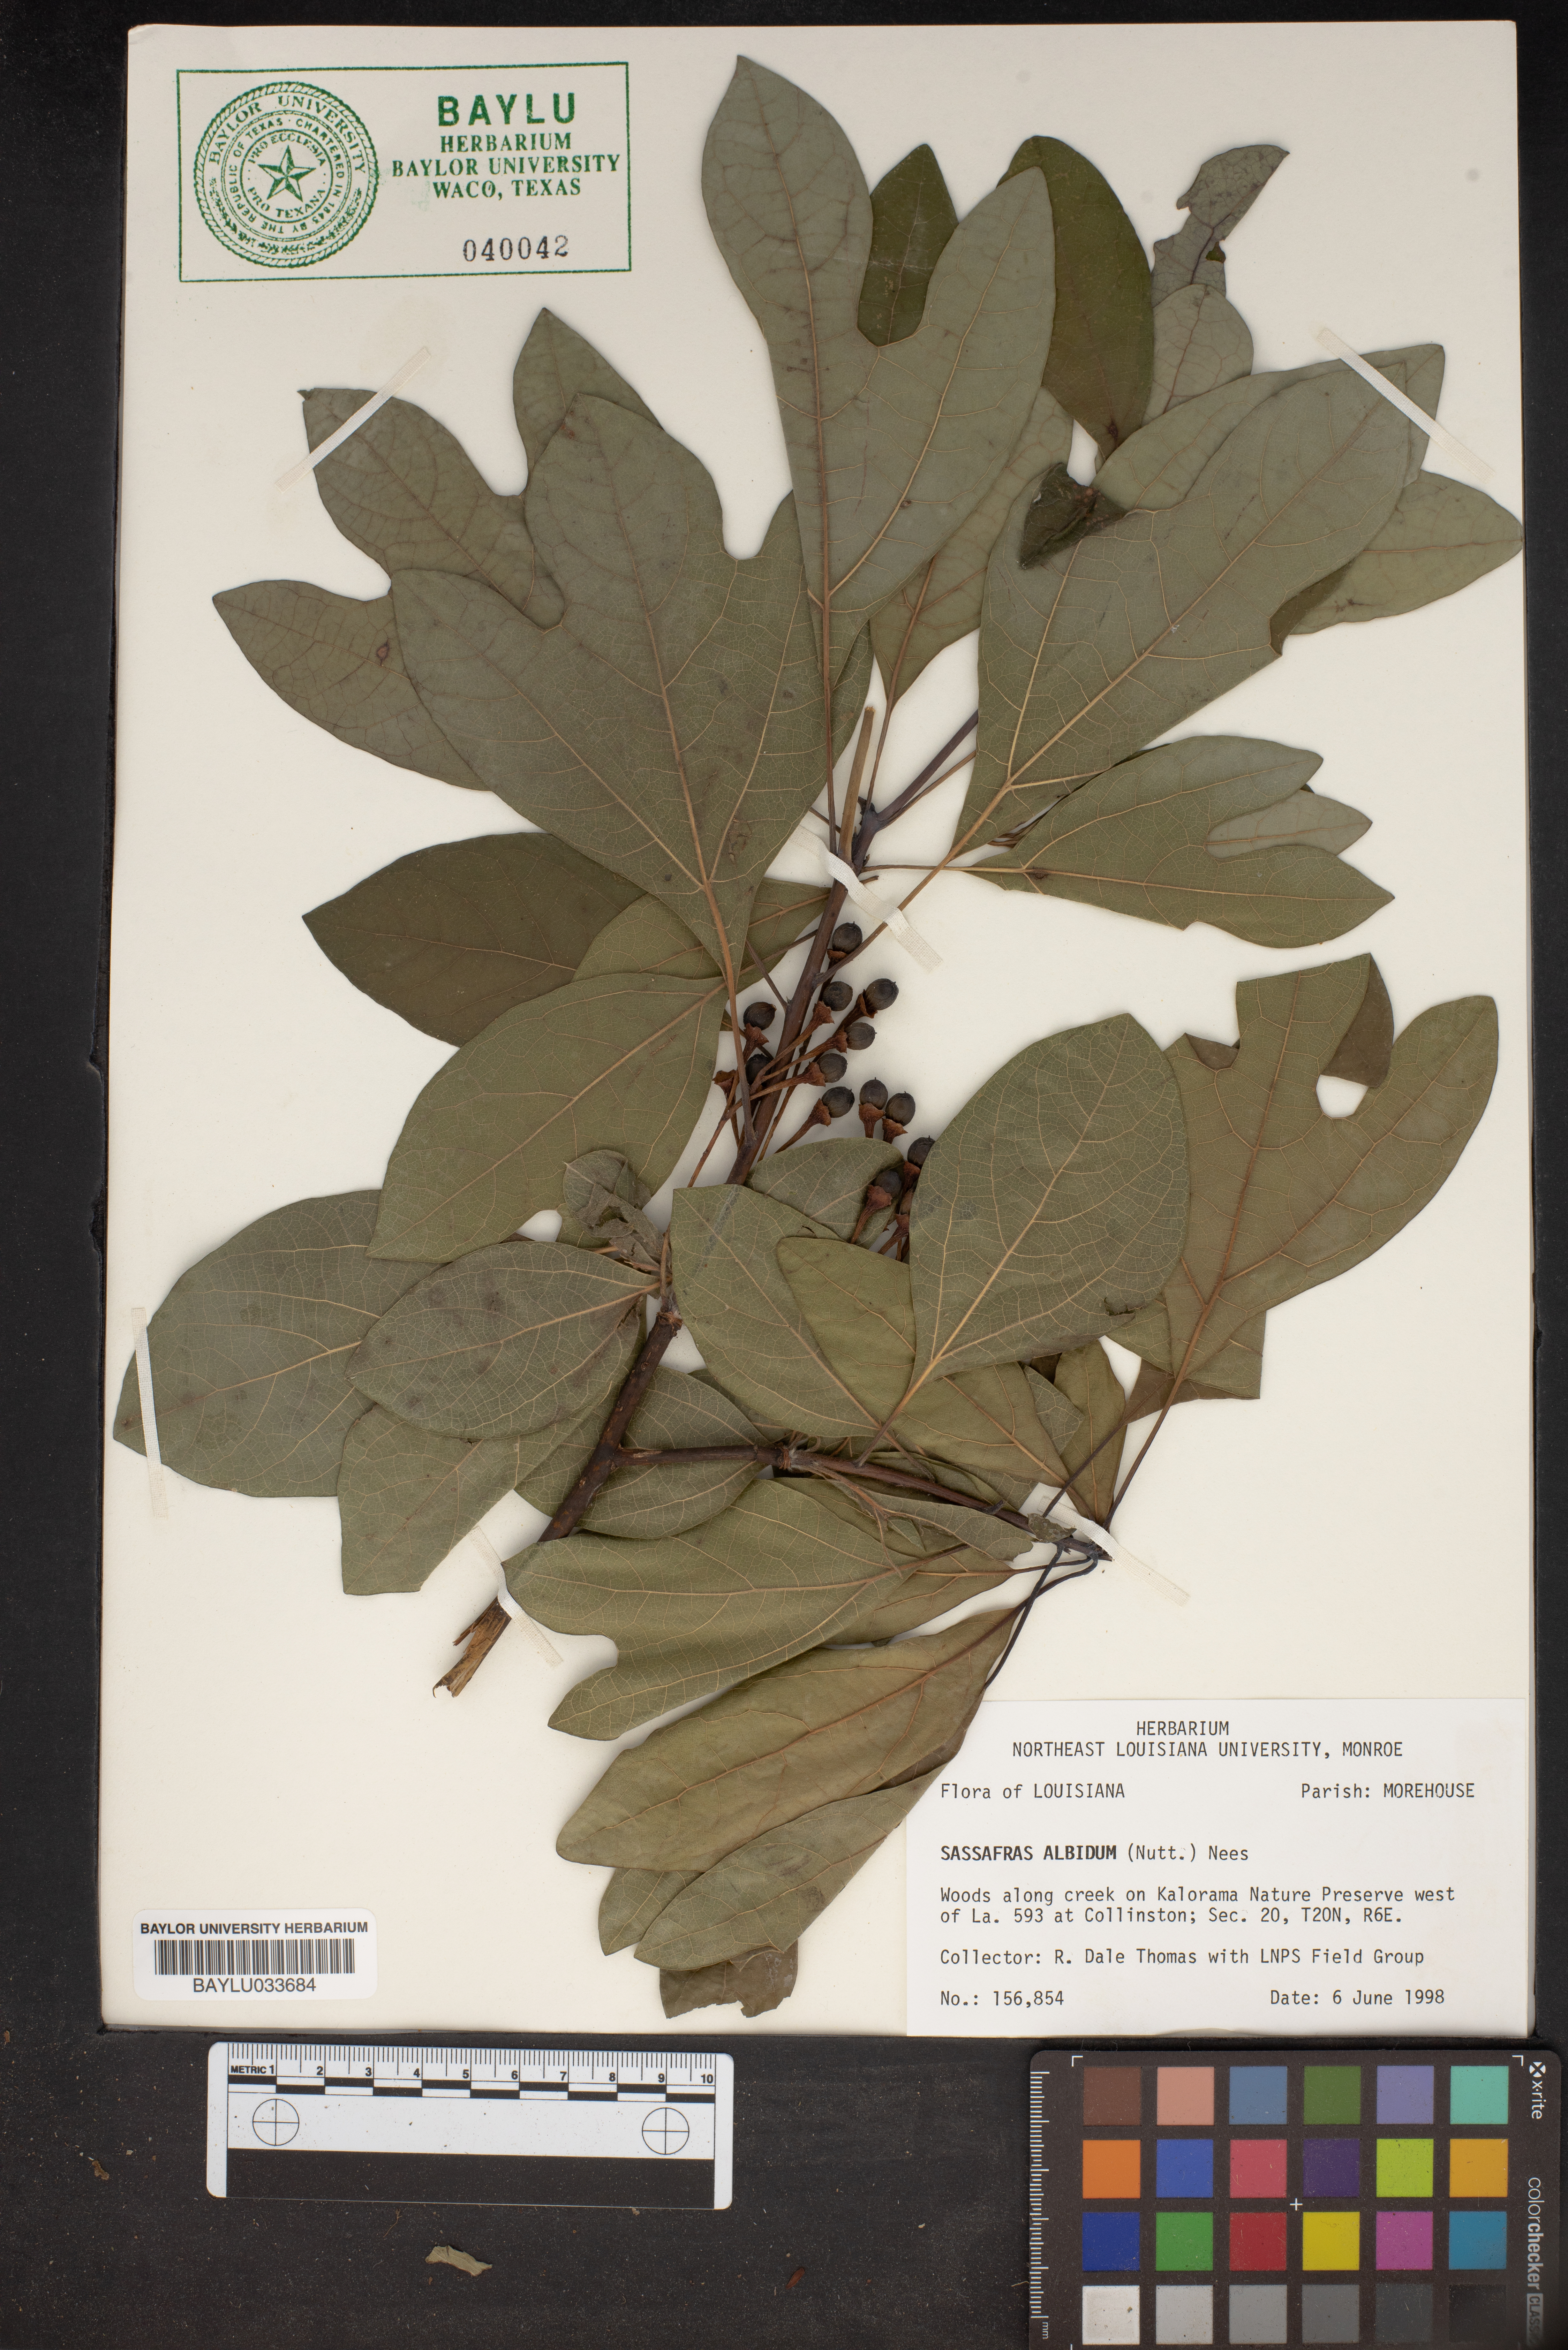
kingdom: Plantae
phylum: Tracheophyta
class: Magnoliopsida
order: Laurales
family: Lauraceae
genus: Sassafras
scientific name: Sassafras albidum
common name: Sassafras
